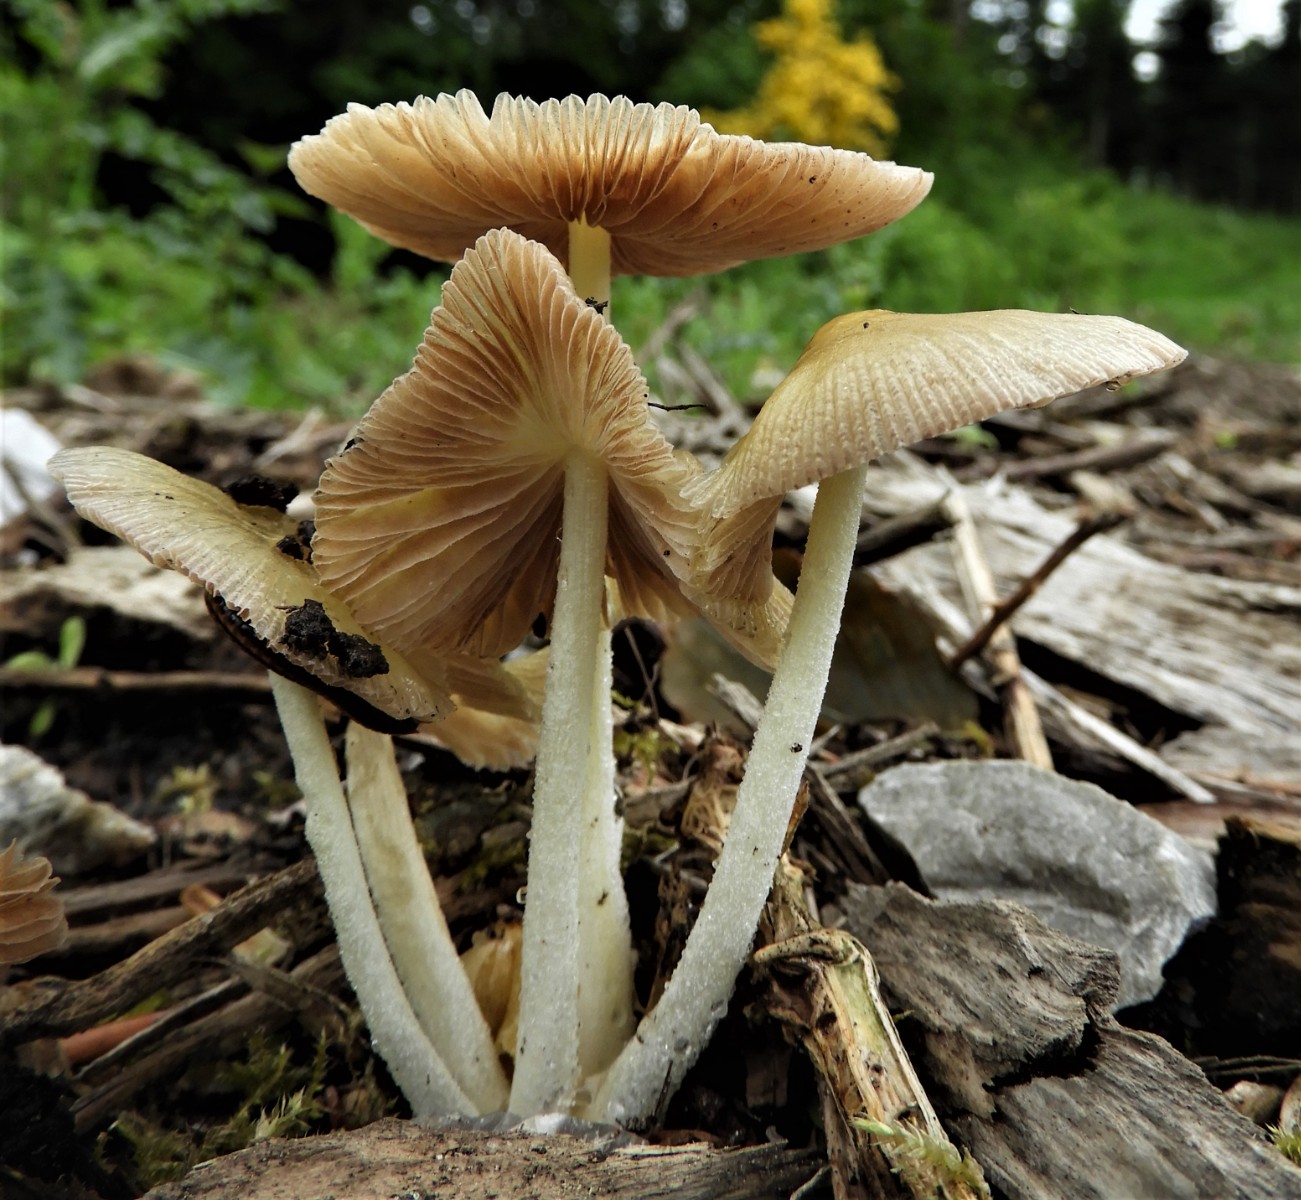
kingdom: Fungi
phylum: Basidiomycota
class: Agaricomycetes
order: Agaricales
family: Bolbitiaceae
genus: Bolbitius
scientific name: Bolbitius titubans
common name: almindelig gulhat
